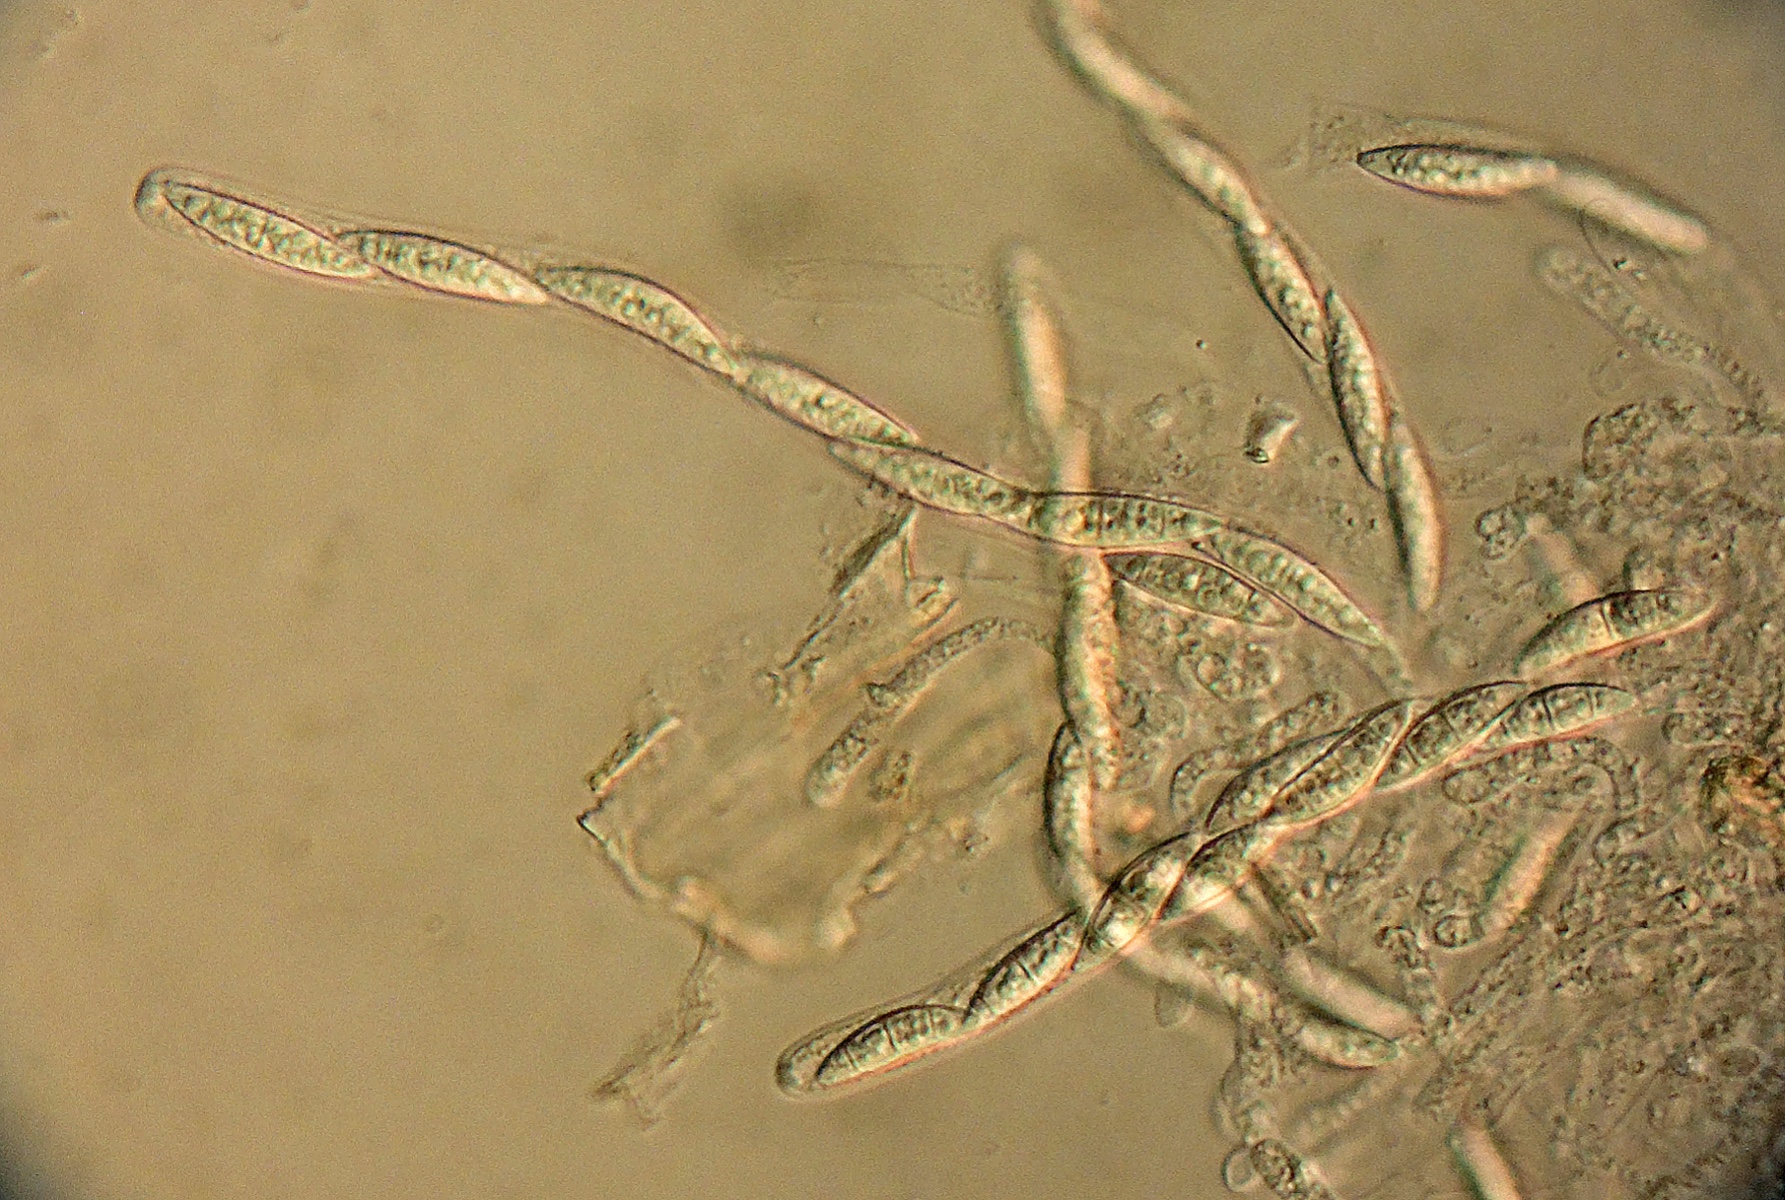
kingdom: Fungi
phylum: Ascomycota
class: Sordariomycetes
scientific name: Sordariomycetes
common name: kernesvampklassen
